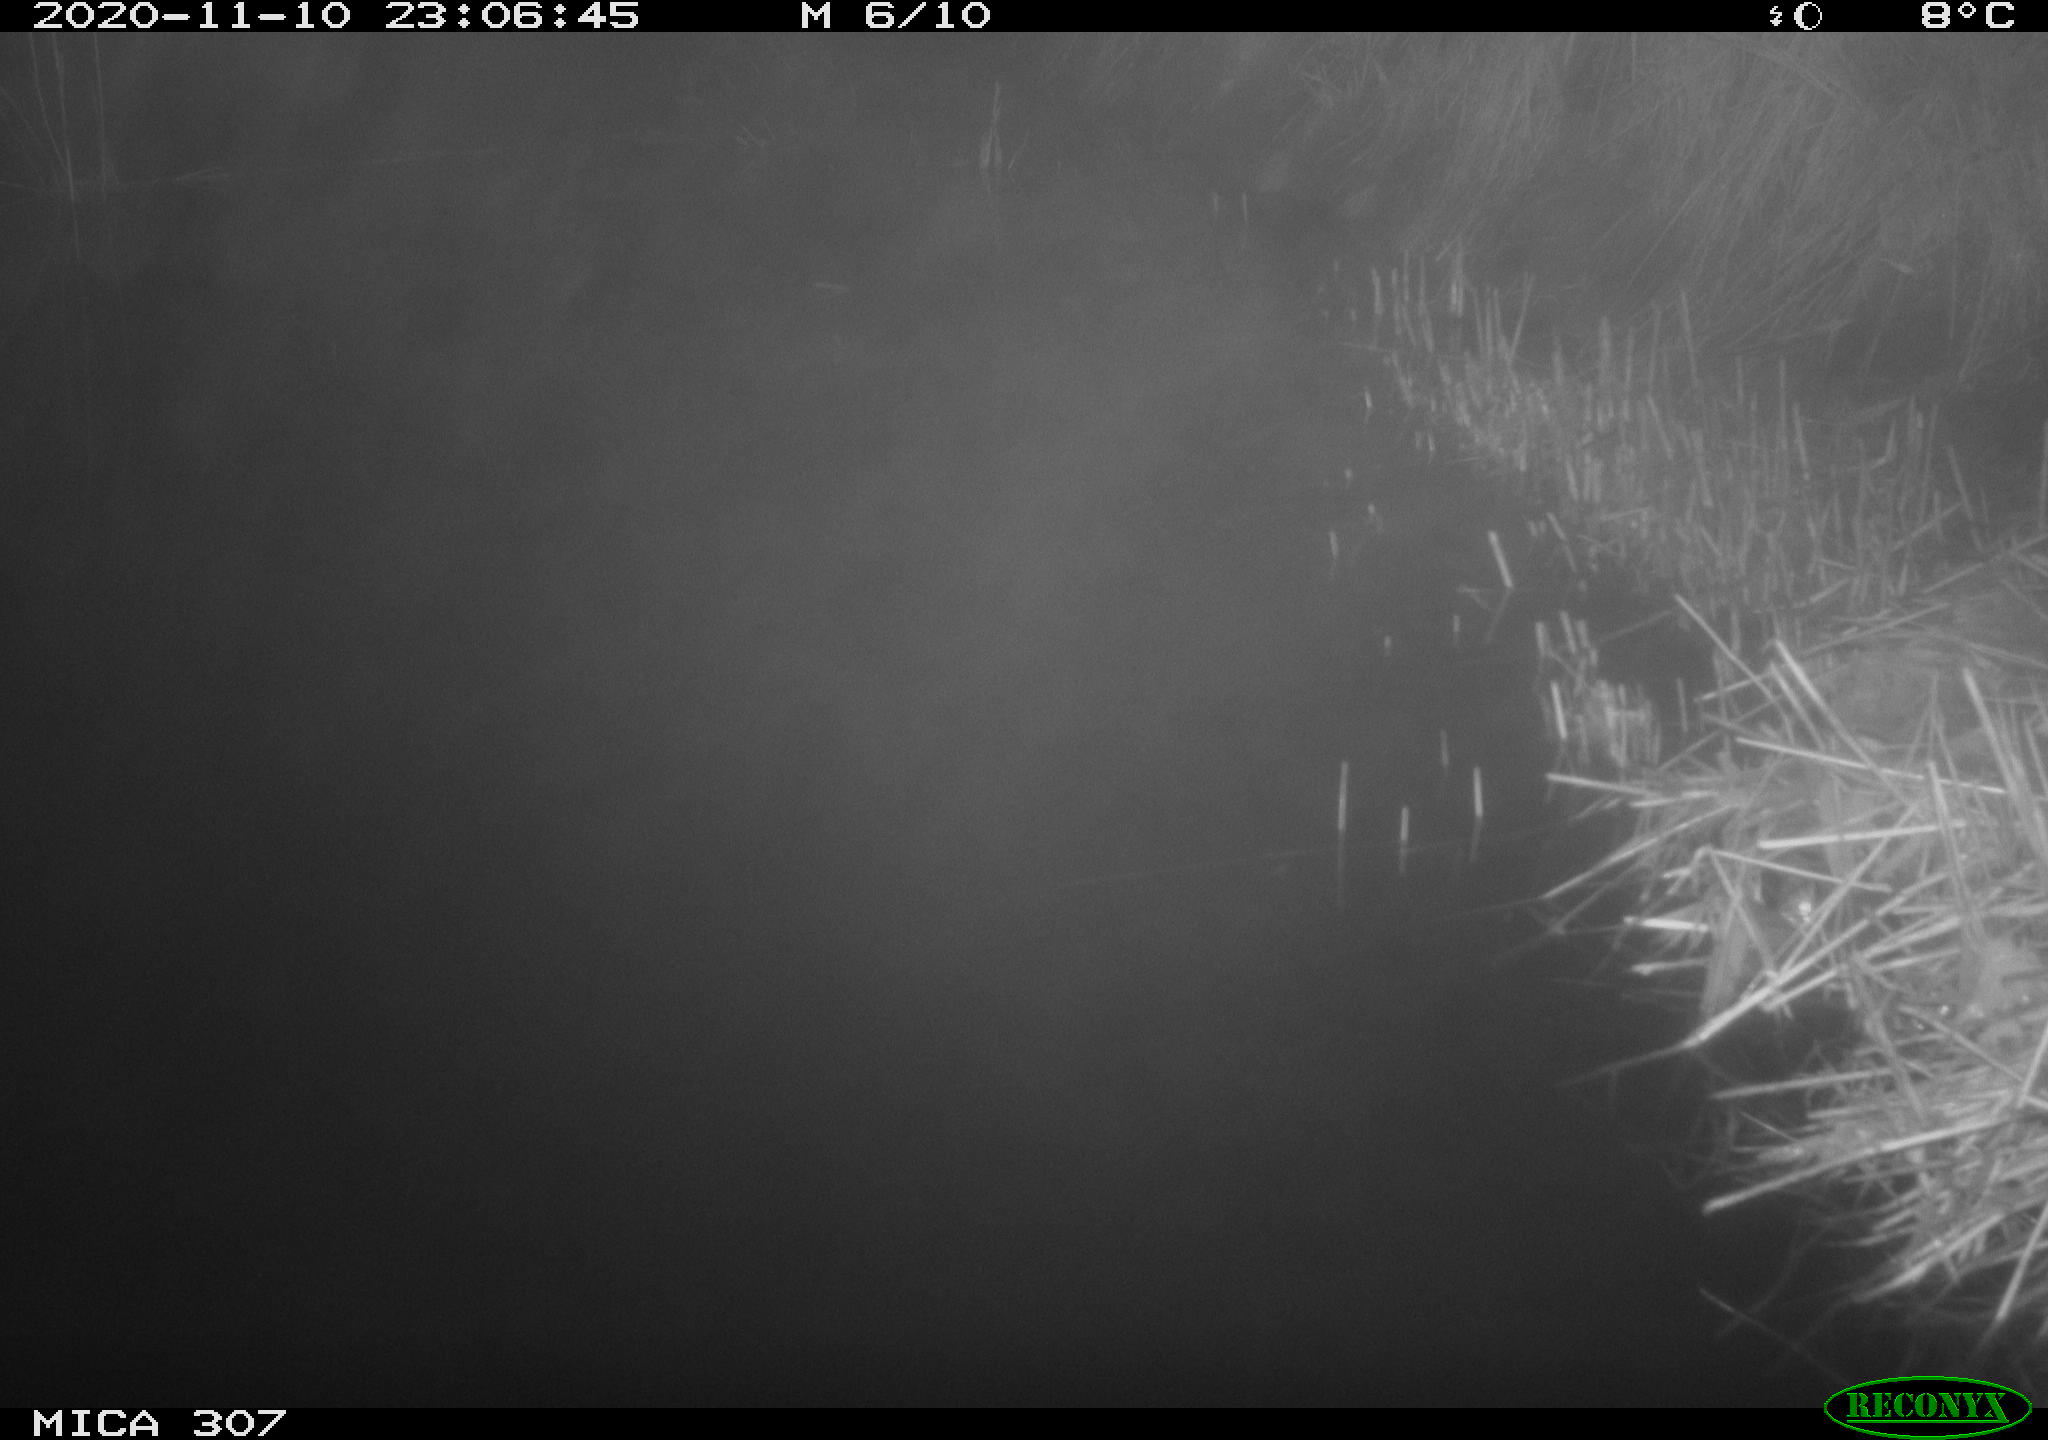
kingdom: Animalia
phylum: Chordata
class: Mammalia
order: Rodentia
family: Muridae
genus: Rattus
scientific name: Rattus norvegicus
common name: Brown rat
